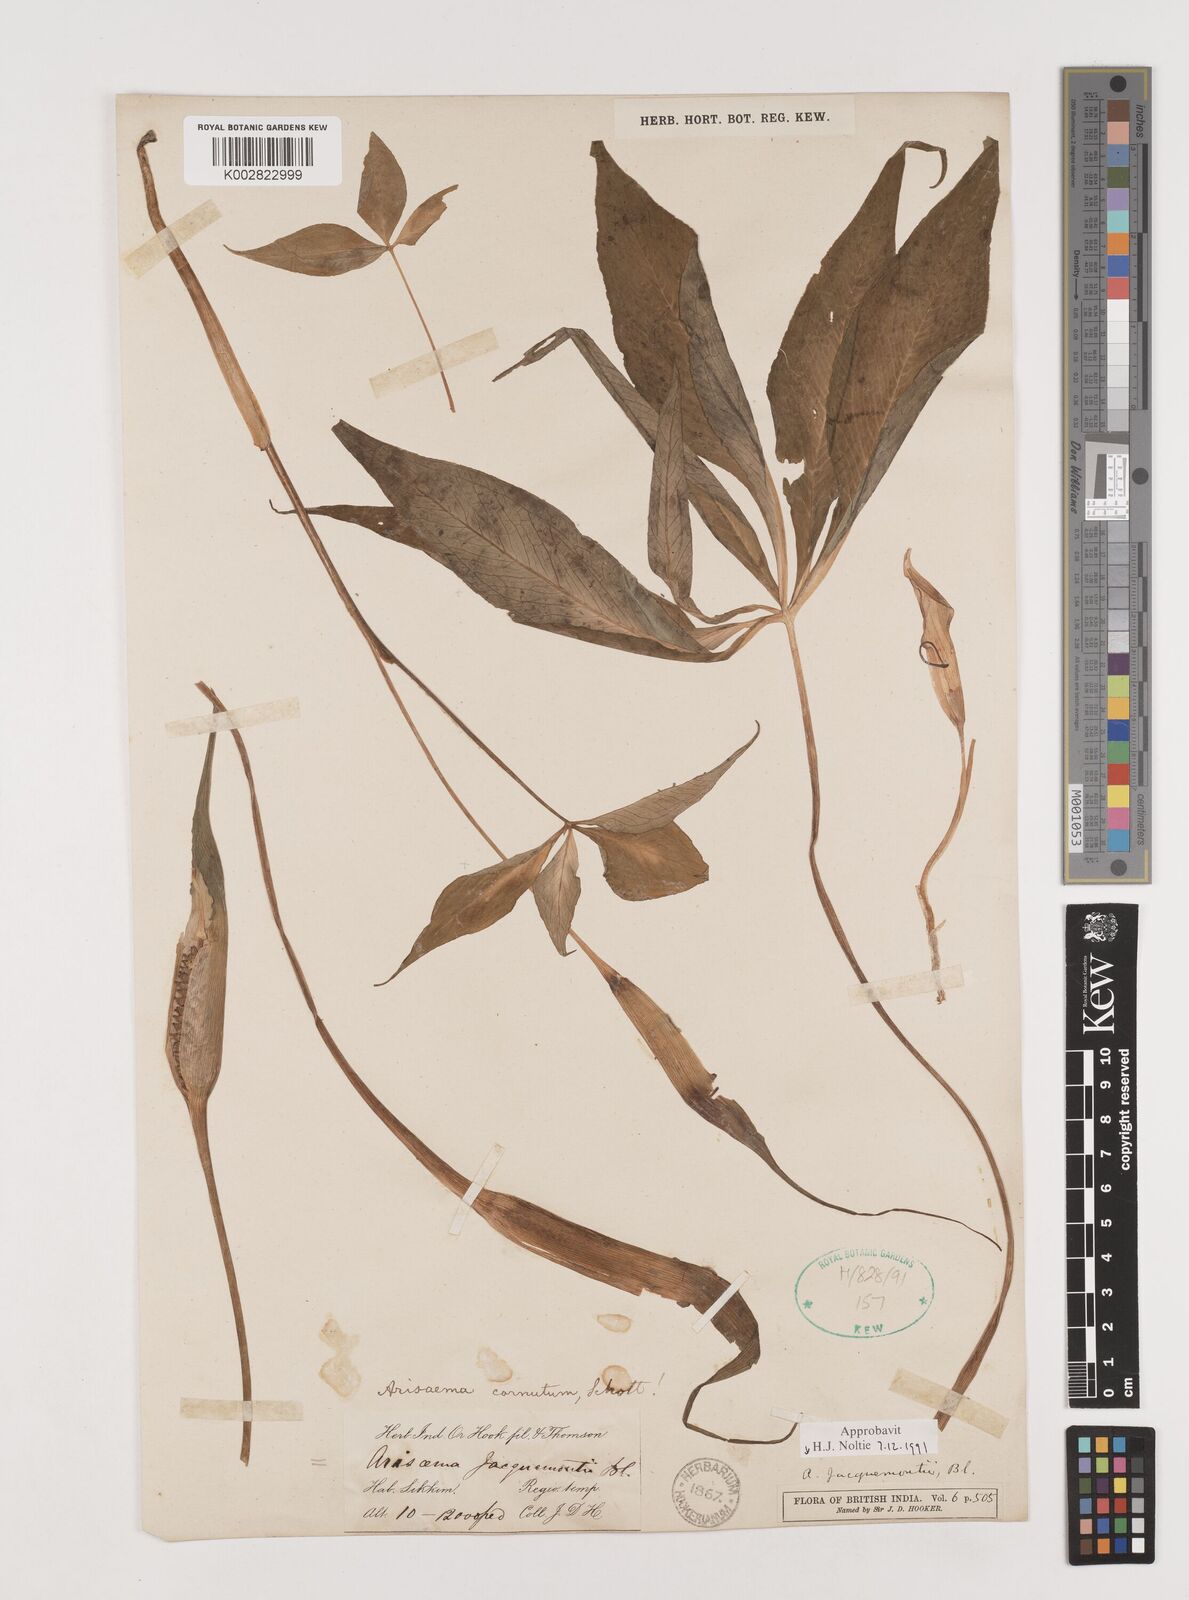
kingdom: Plantae
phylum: Tracheophyta
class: Liliopsida
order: Alismatales
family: Araceae
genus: Arisaema
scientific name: Arisaema jacquemontii
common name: Jacquemont's cobra-lily
